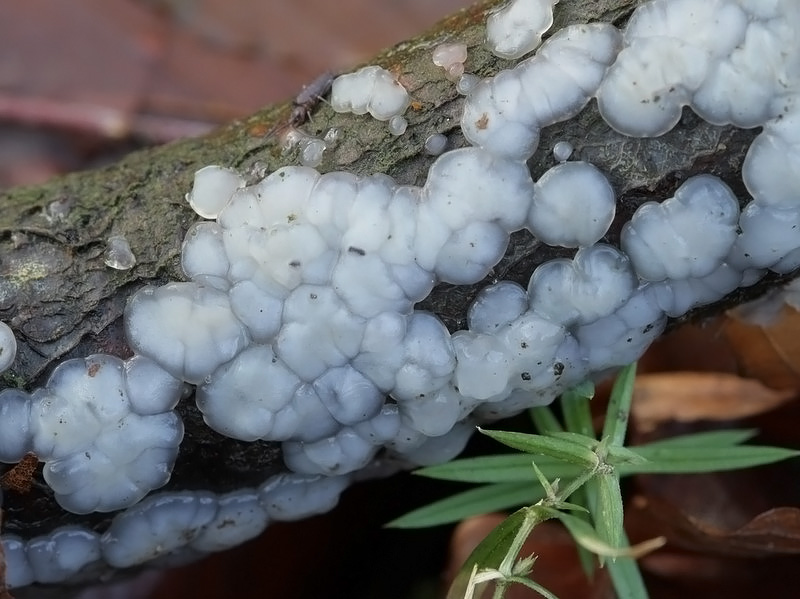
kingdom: Fungi
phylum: Basidiomycota
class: Agaricomycetes
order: Auriculariales
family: Auriculariaceae
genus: Exidia
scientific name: Exidia thuretiana
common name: hvidlig bævretop
